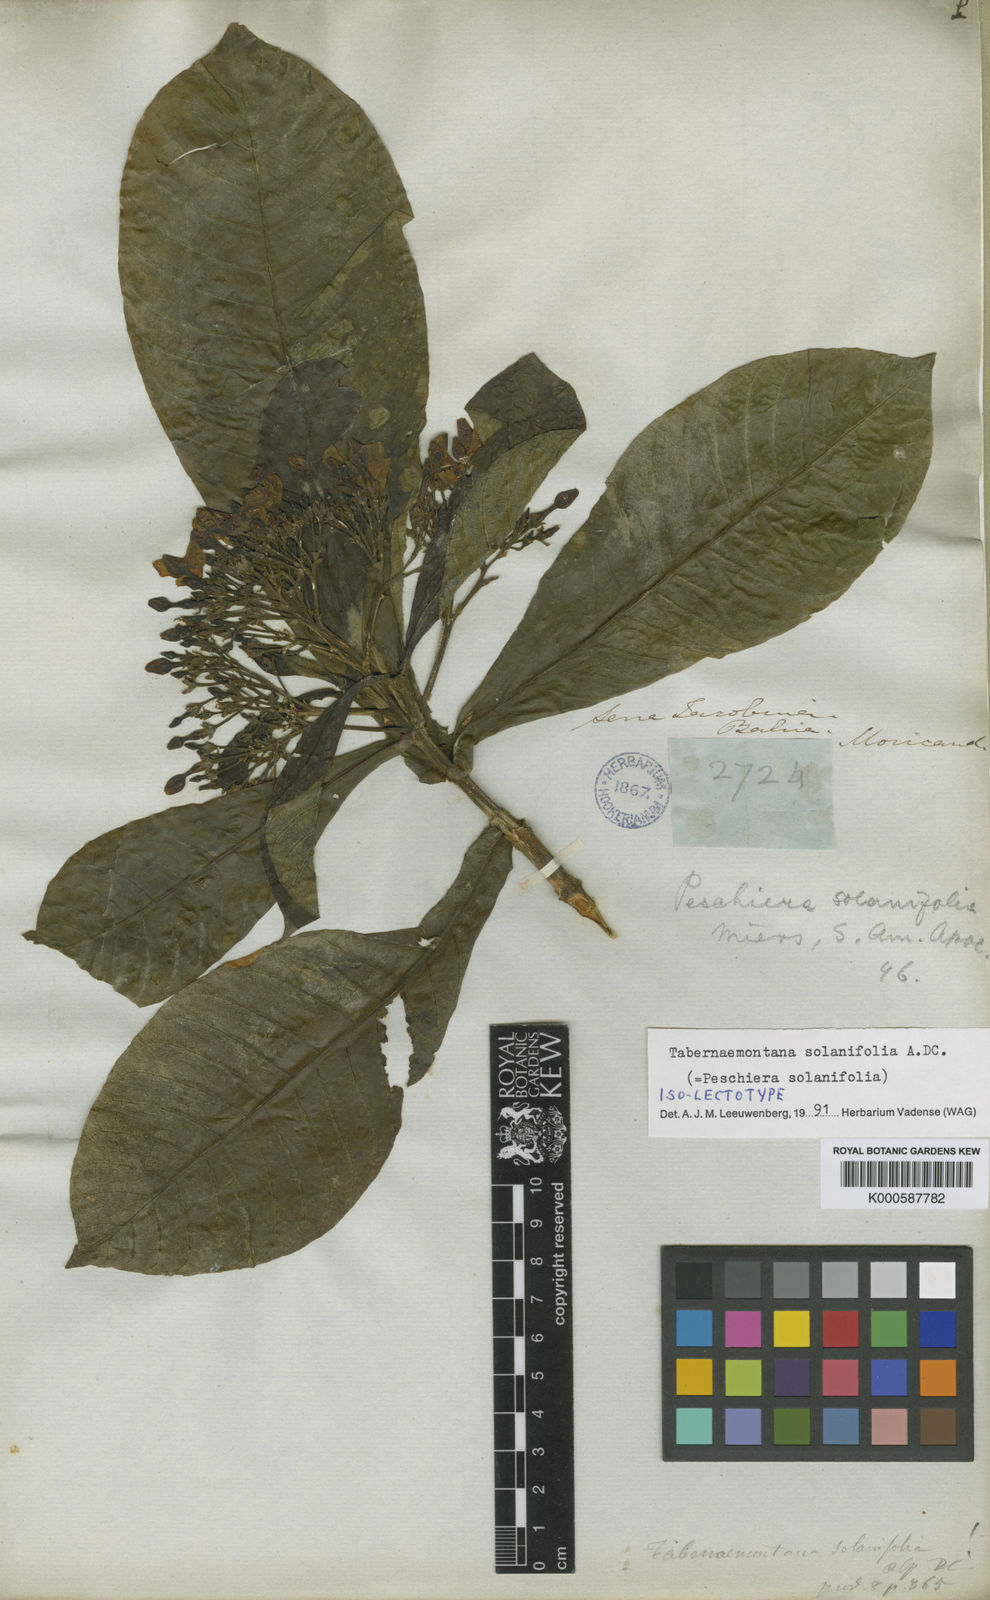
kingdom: Plantae
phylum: Tracheophyta
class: Magnoliopsida
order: Gentianales
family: Apocynaceae
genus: Tabernaemontana
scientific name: Tabernaemontana solanifolia
